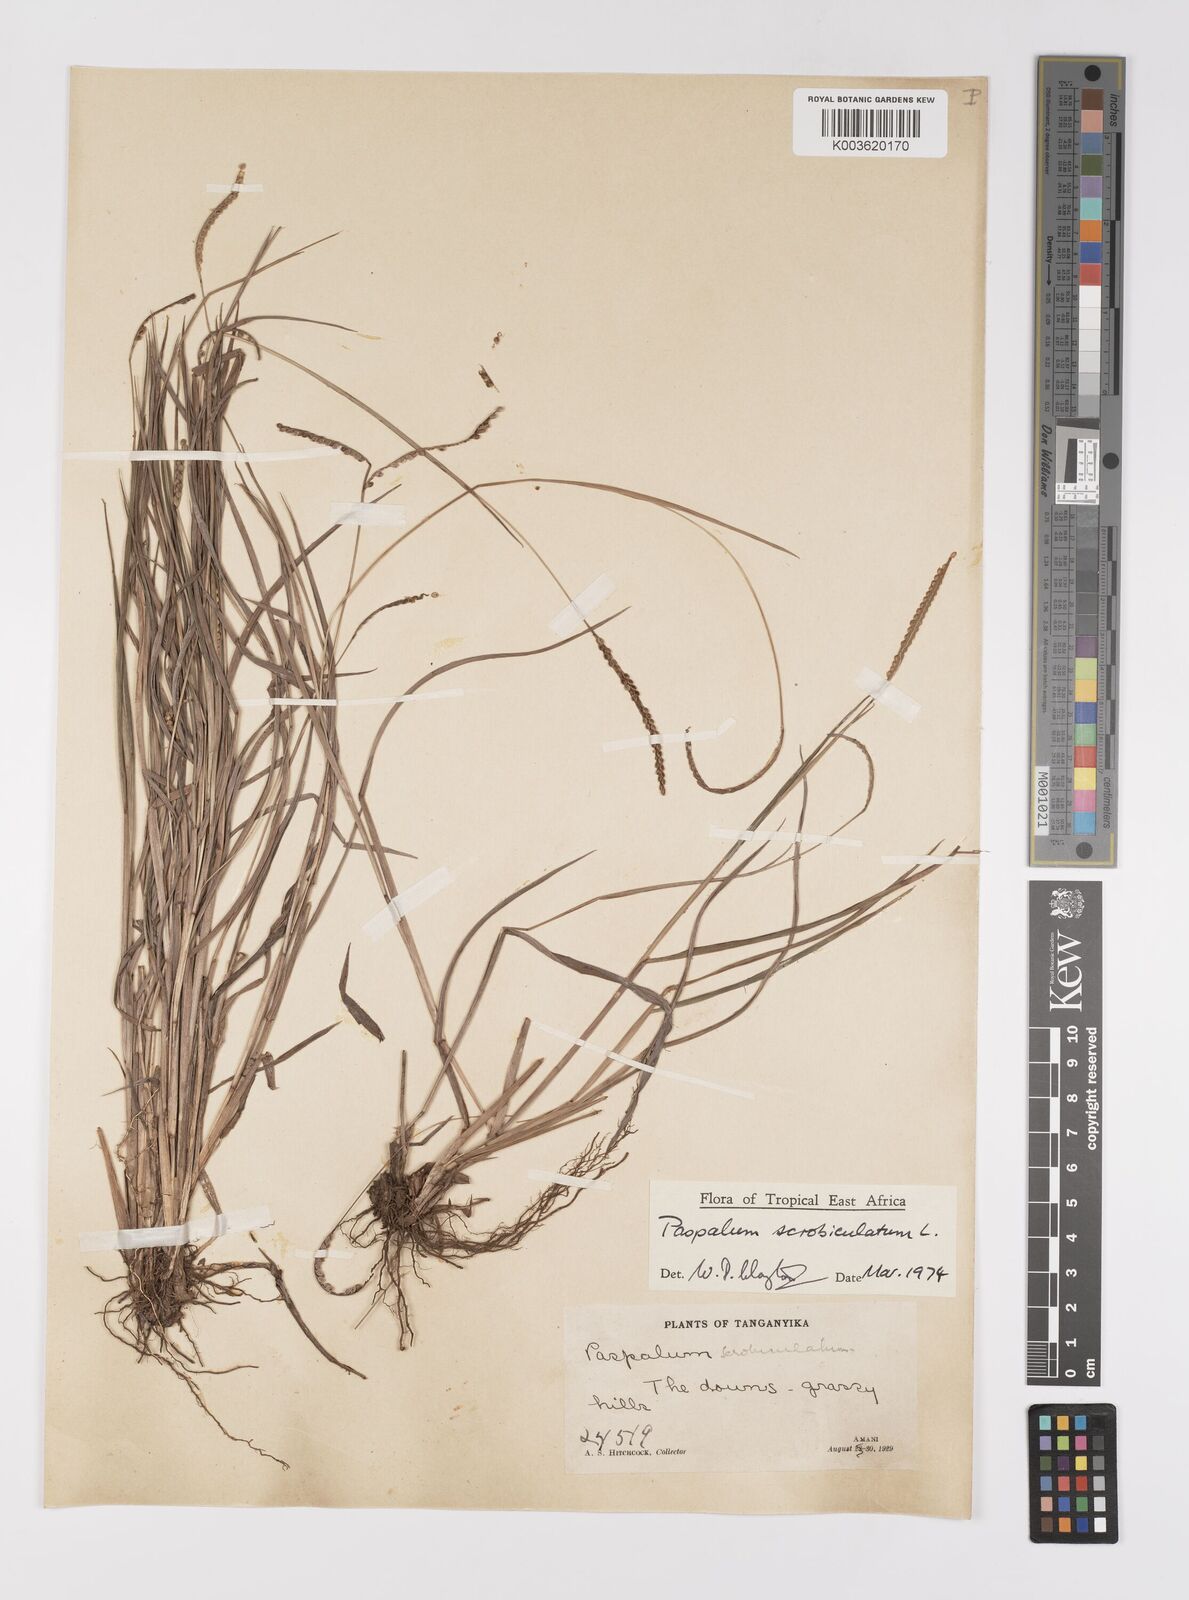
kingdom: Plantae
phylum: Tracheophyta
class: Liliopsida
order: Poales
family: Poaceae
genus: Paspalum
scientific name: Paspalum scrobiculatum
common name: Kodo millet
